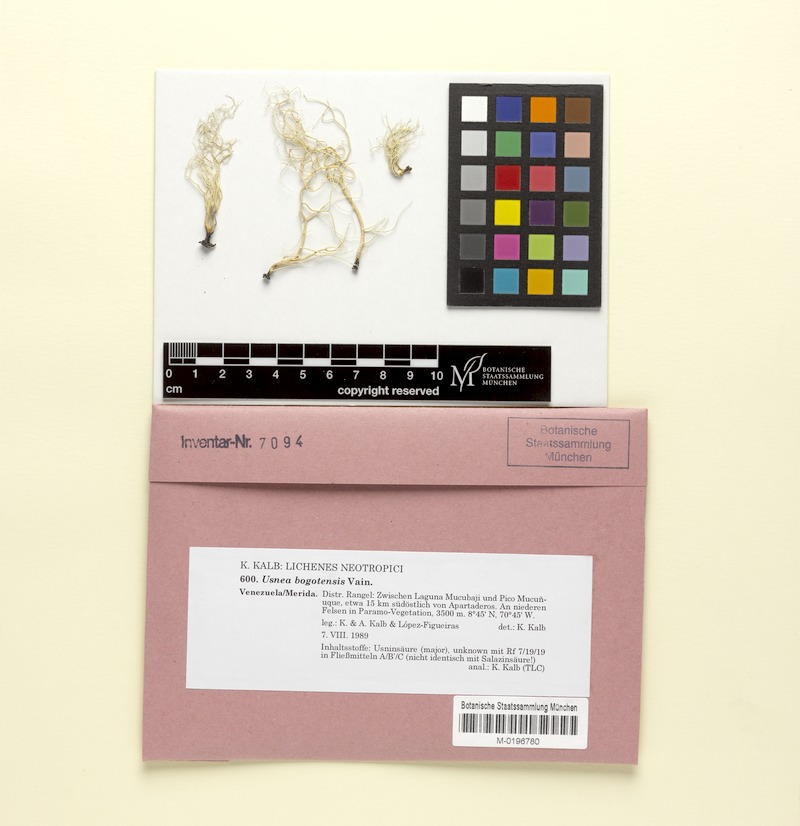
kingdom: Fungi
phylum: Ascomycota
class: Lecanoromycetes
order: Lecanorales
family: Parmeliaceae
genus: Usnea
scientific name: Usnea bogotensis
